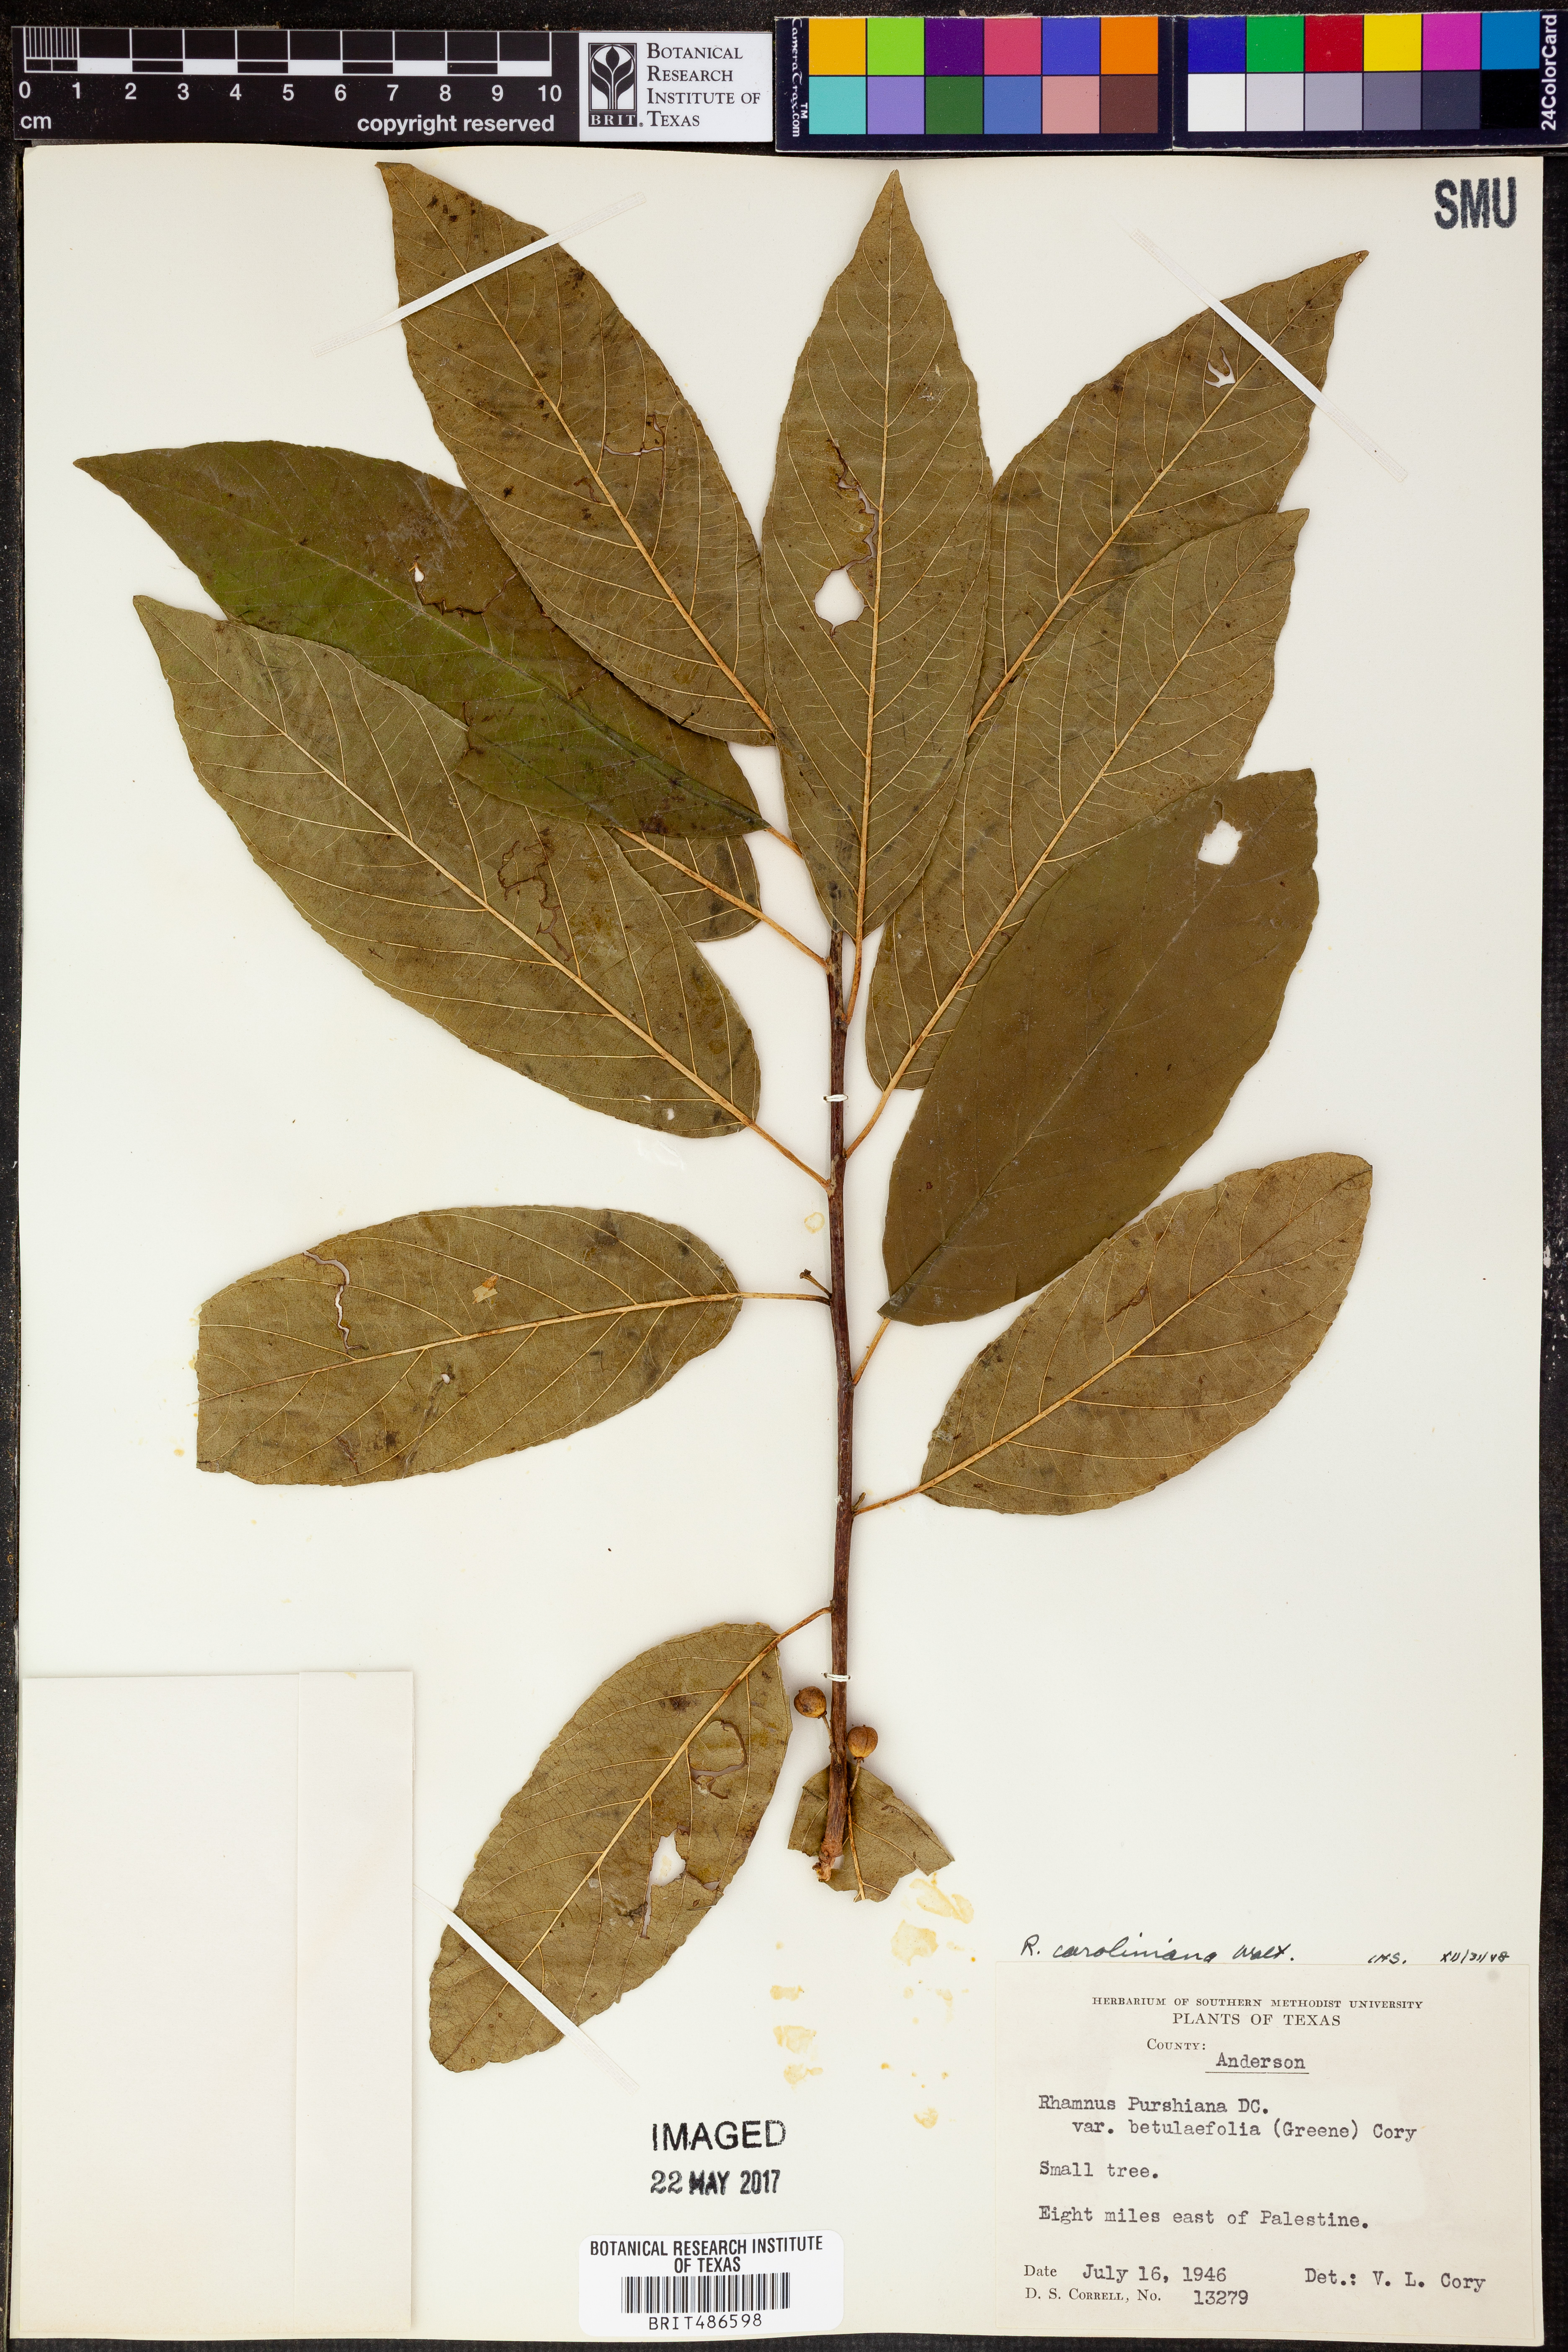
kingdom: Plantae
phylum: Tracheophyta
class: Magnoliopsida
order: Rosales
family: Rhamnaceae
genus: Frangula
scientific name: Frangula caroliniana
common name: Carolina buckthorn
